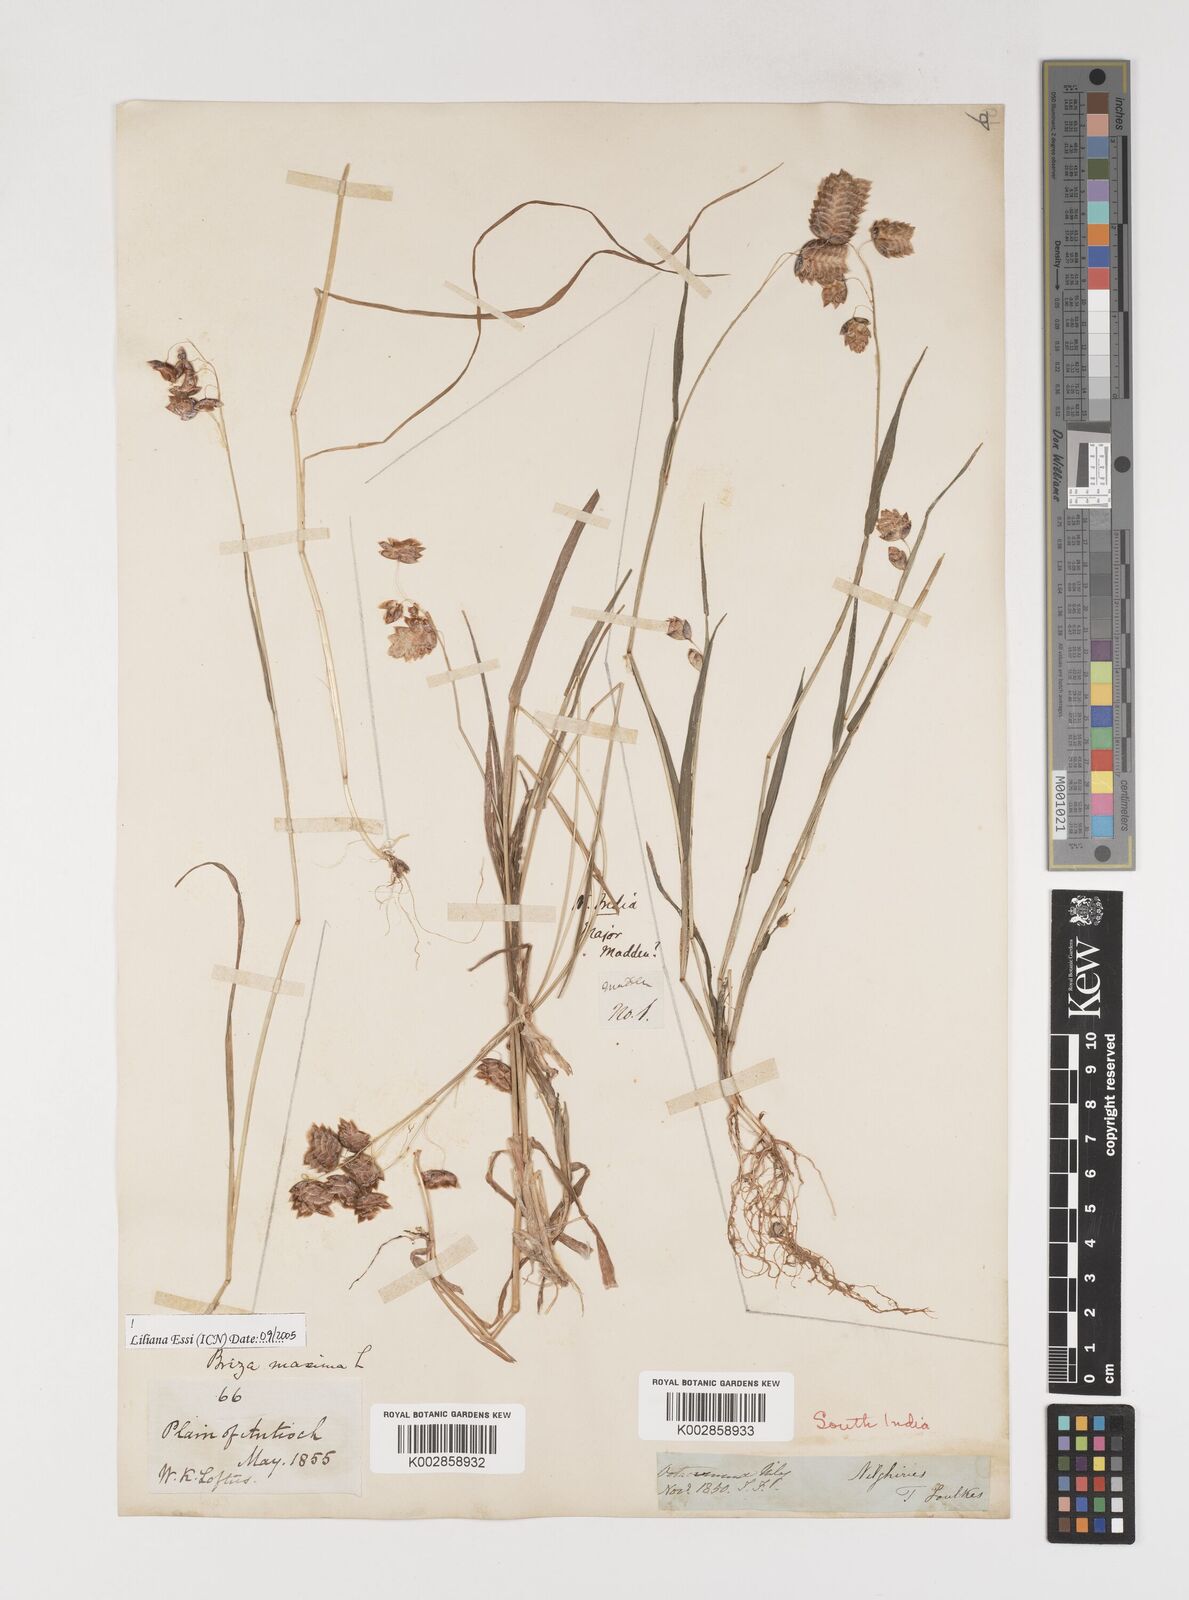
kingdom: Plantae
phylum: Tracheophyta
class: Liliopsida
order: Poales
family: Poaceae
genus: Briza
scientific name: Briza maxima
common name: Big quakinggrass
